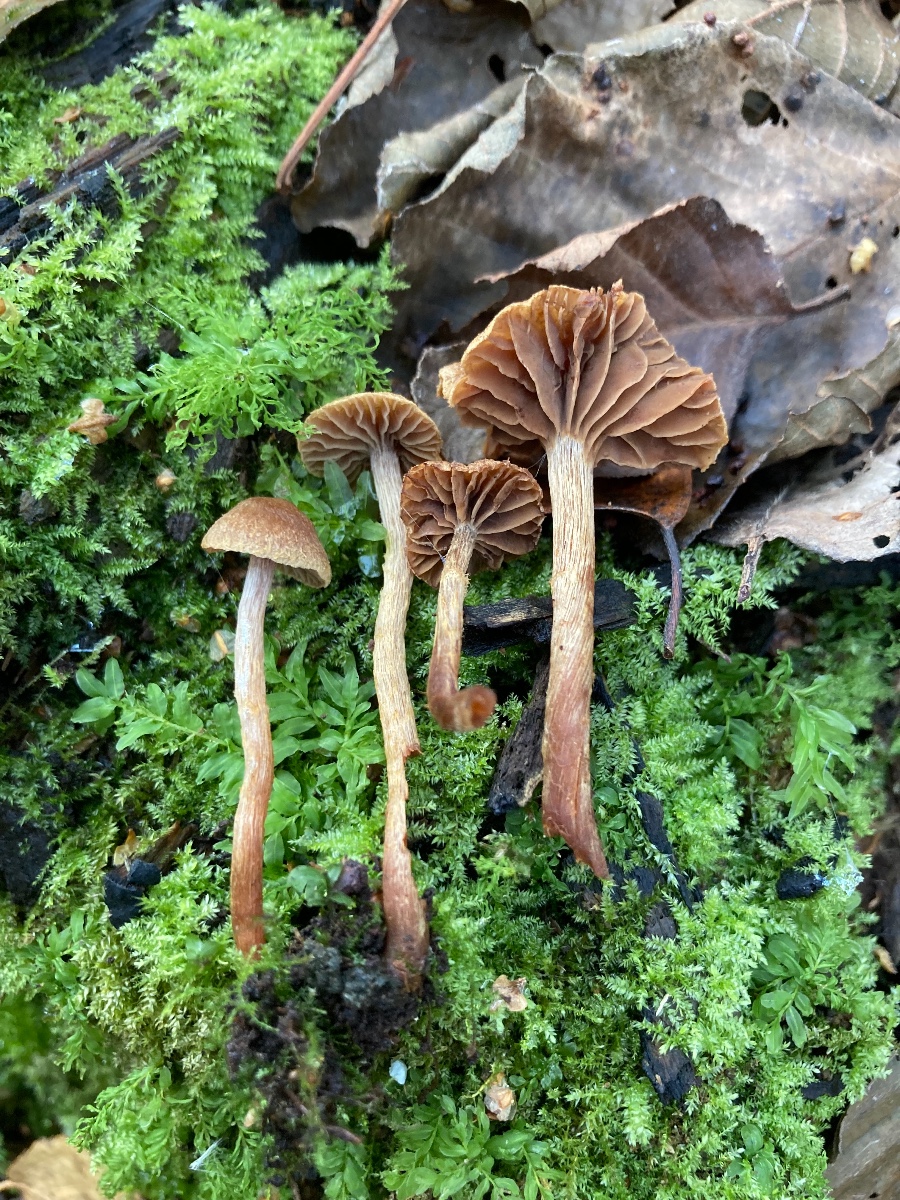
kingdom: Fungi
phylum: Basidiomycota
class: Agaricomycetes
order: Agaricales
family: Cortinariaceae
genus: Cortinarius
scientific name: Cortinarius helvelloides
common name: fjernbladet slørhat
